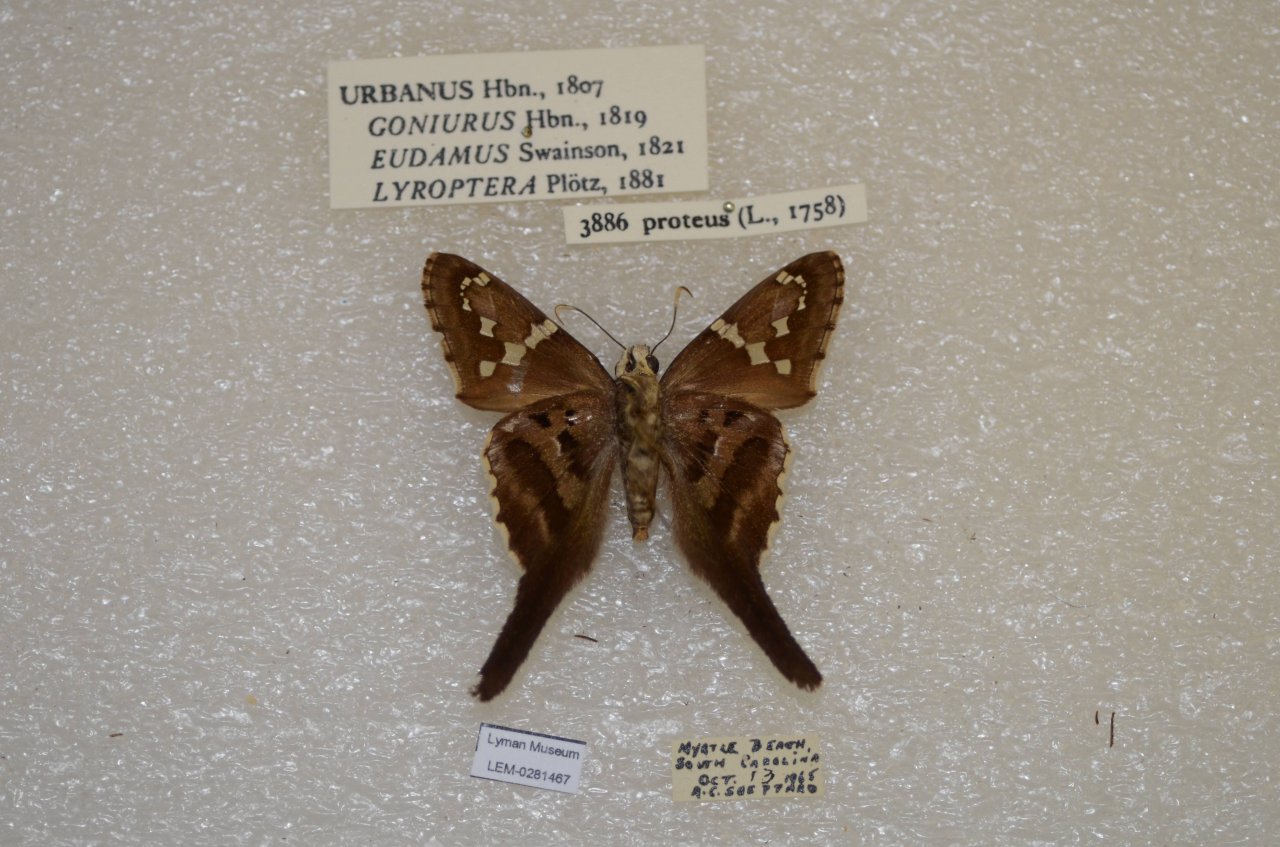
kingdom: Animalia
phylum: Arthropoda
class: Insecta
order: Lepidoptera
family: Hesperiidae
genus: Urbanus
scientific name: Urbanus proteus
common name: Long-tailed Skipper
